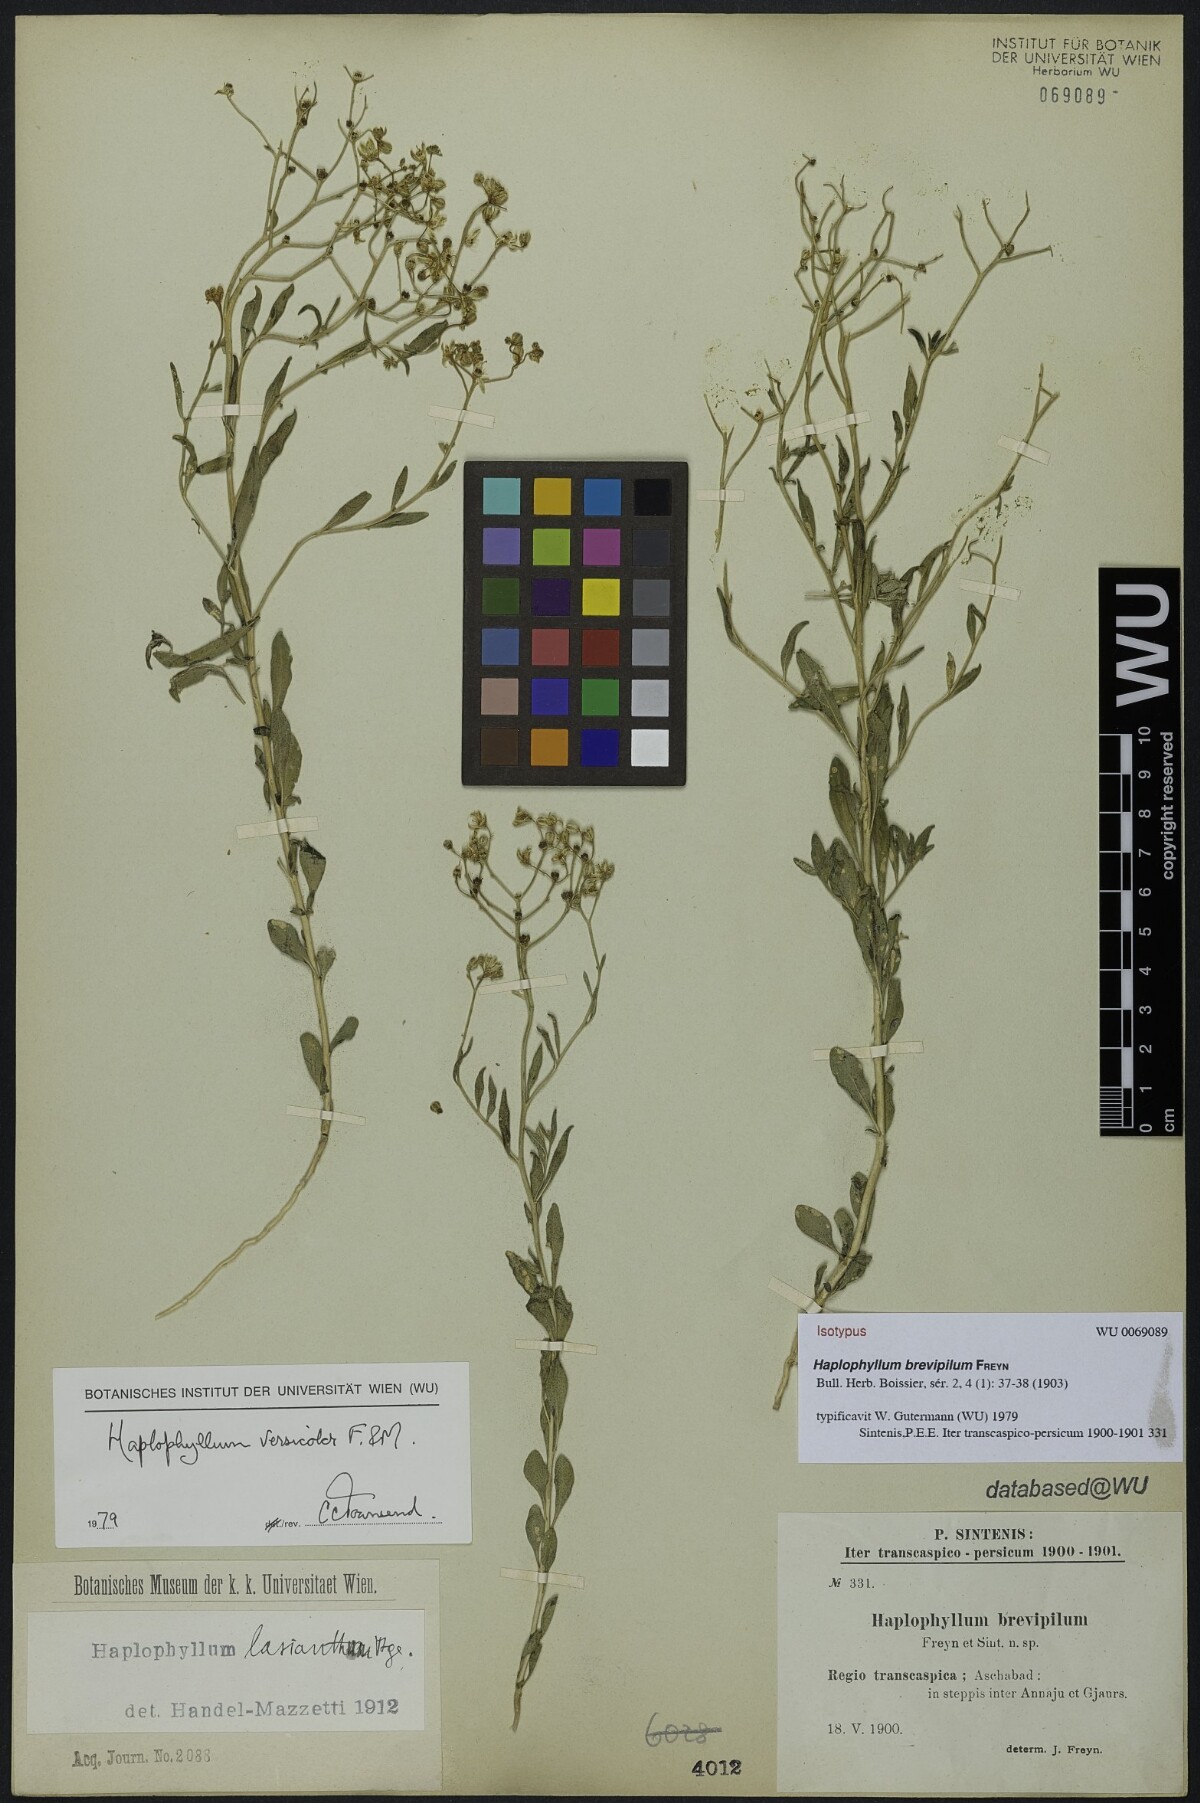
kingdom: Plantae
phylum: Tracheophyta
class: Magnoliopsida
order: Sapindales
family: Rutaceae
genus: Haplophyllum
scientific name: Haplophyllum versicolor
